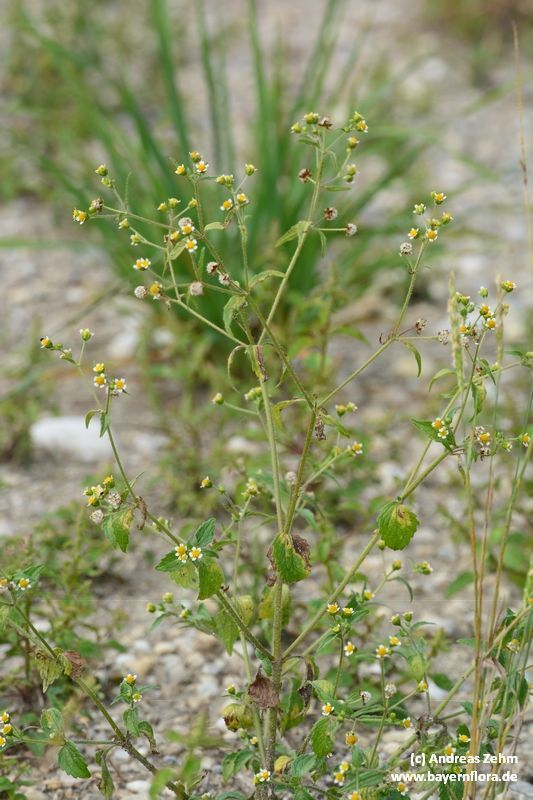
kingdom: Plantae
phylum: Tracheophyta
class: Magnoliopsida
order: Asterales
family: Asteraceae
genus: Galinsoga
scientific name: Galinsoga quadriradiata
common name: Shaggy soldier
